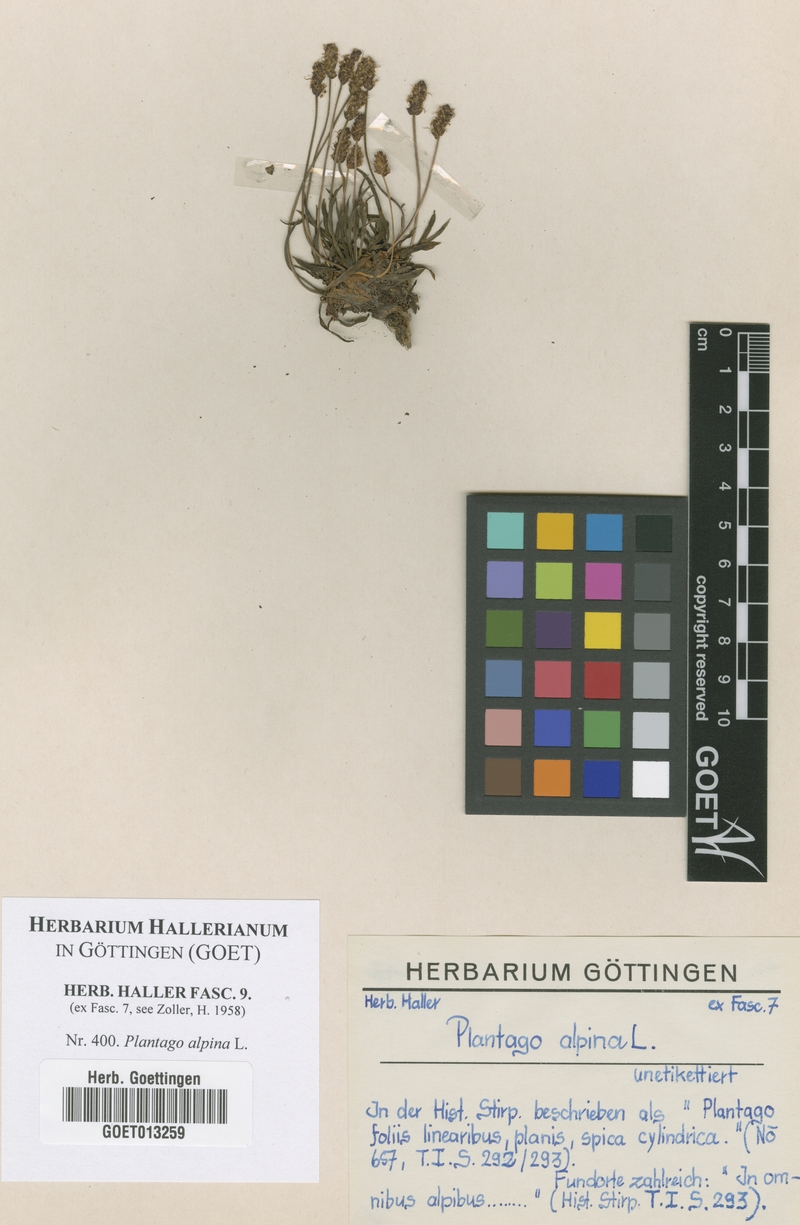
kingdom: Plantae
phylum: Tracheophyta
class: Magnoliopsida
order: Lamiales
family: Plantaginaceae
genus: Plantago
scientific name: Plantago alpina
